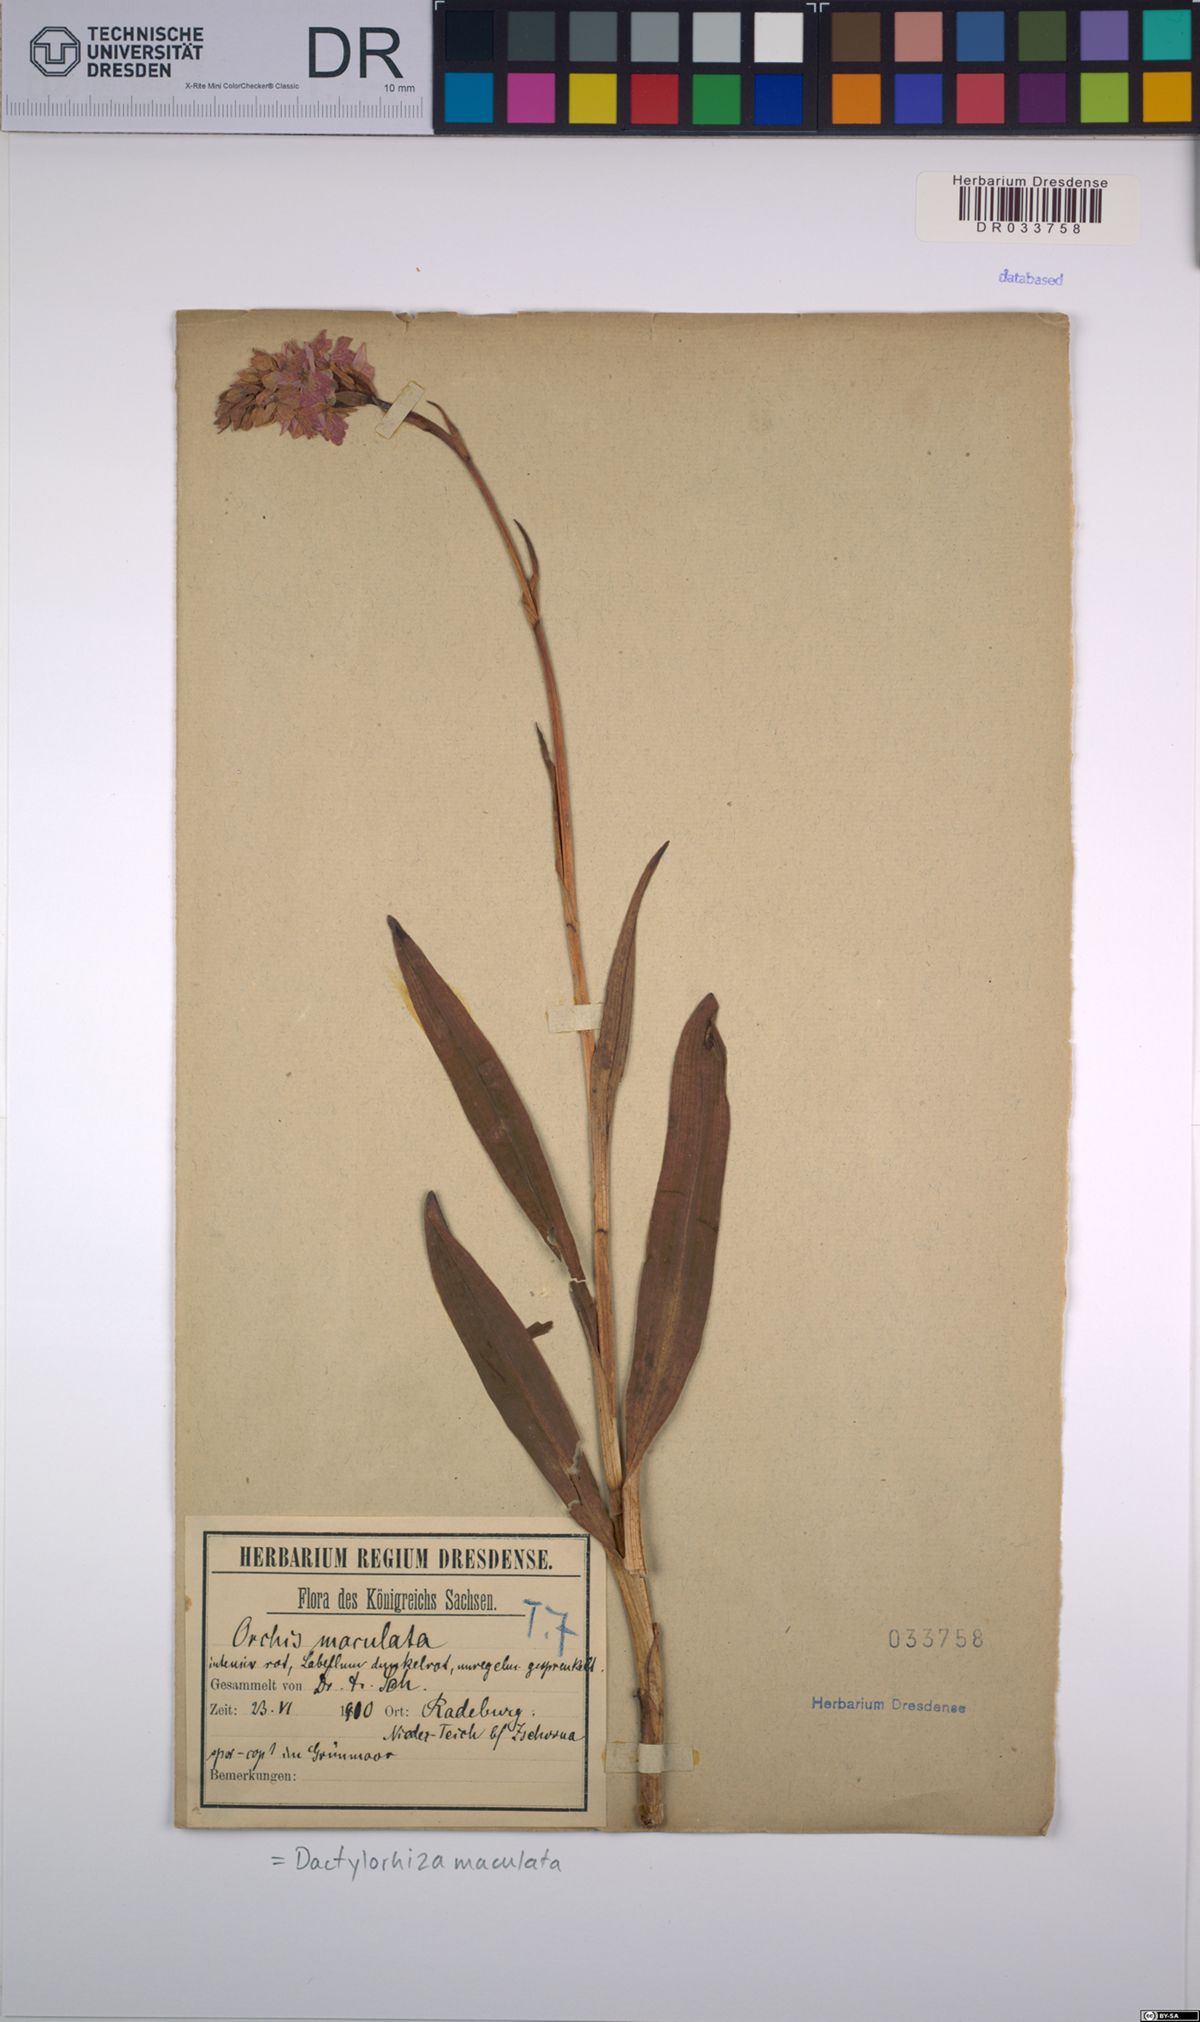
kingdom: Plantae
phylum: Tracheophyta
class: Liliopsida
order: Asparagales
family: Orchidaceae
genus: Dactylorhiza
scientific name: Dactylorhiza maculata
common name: Heath spotted-orchid
